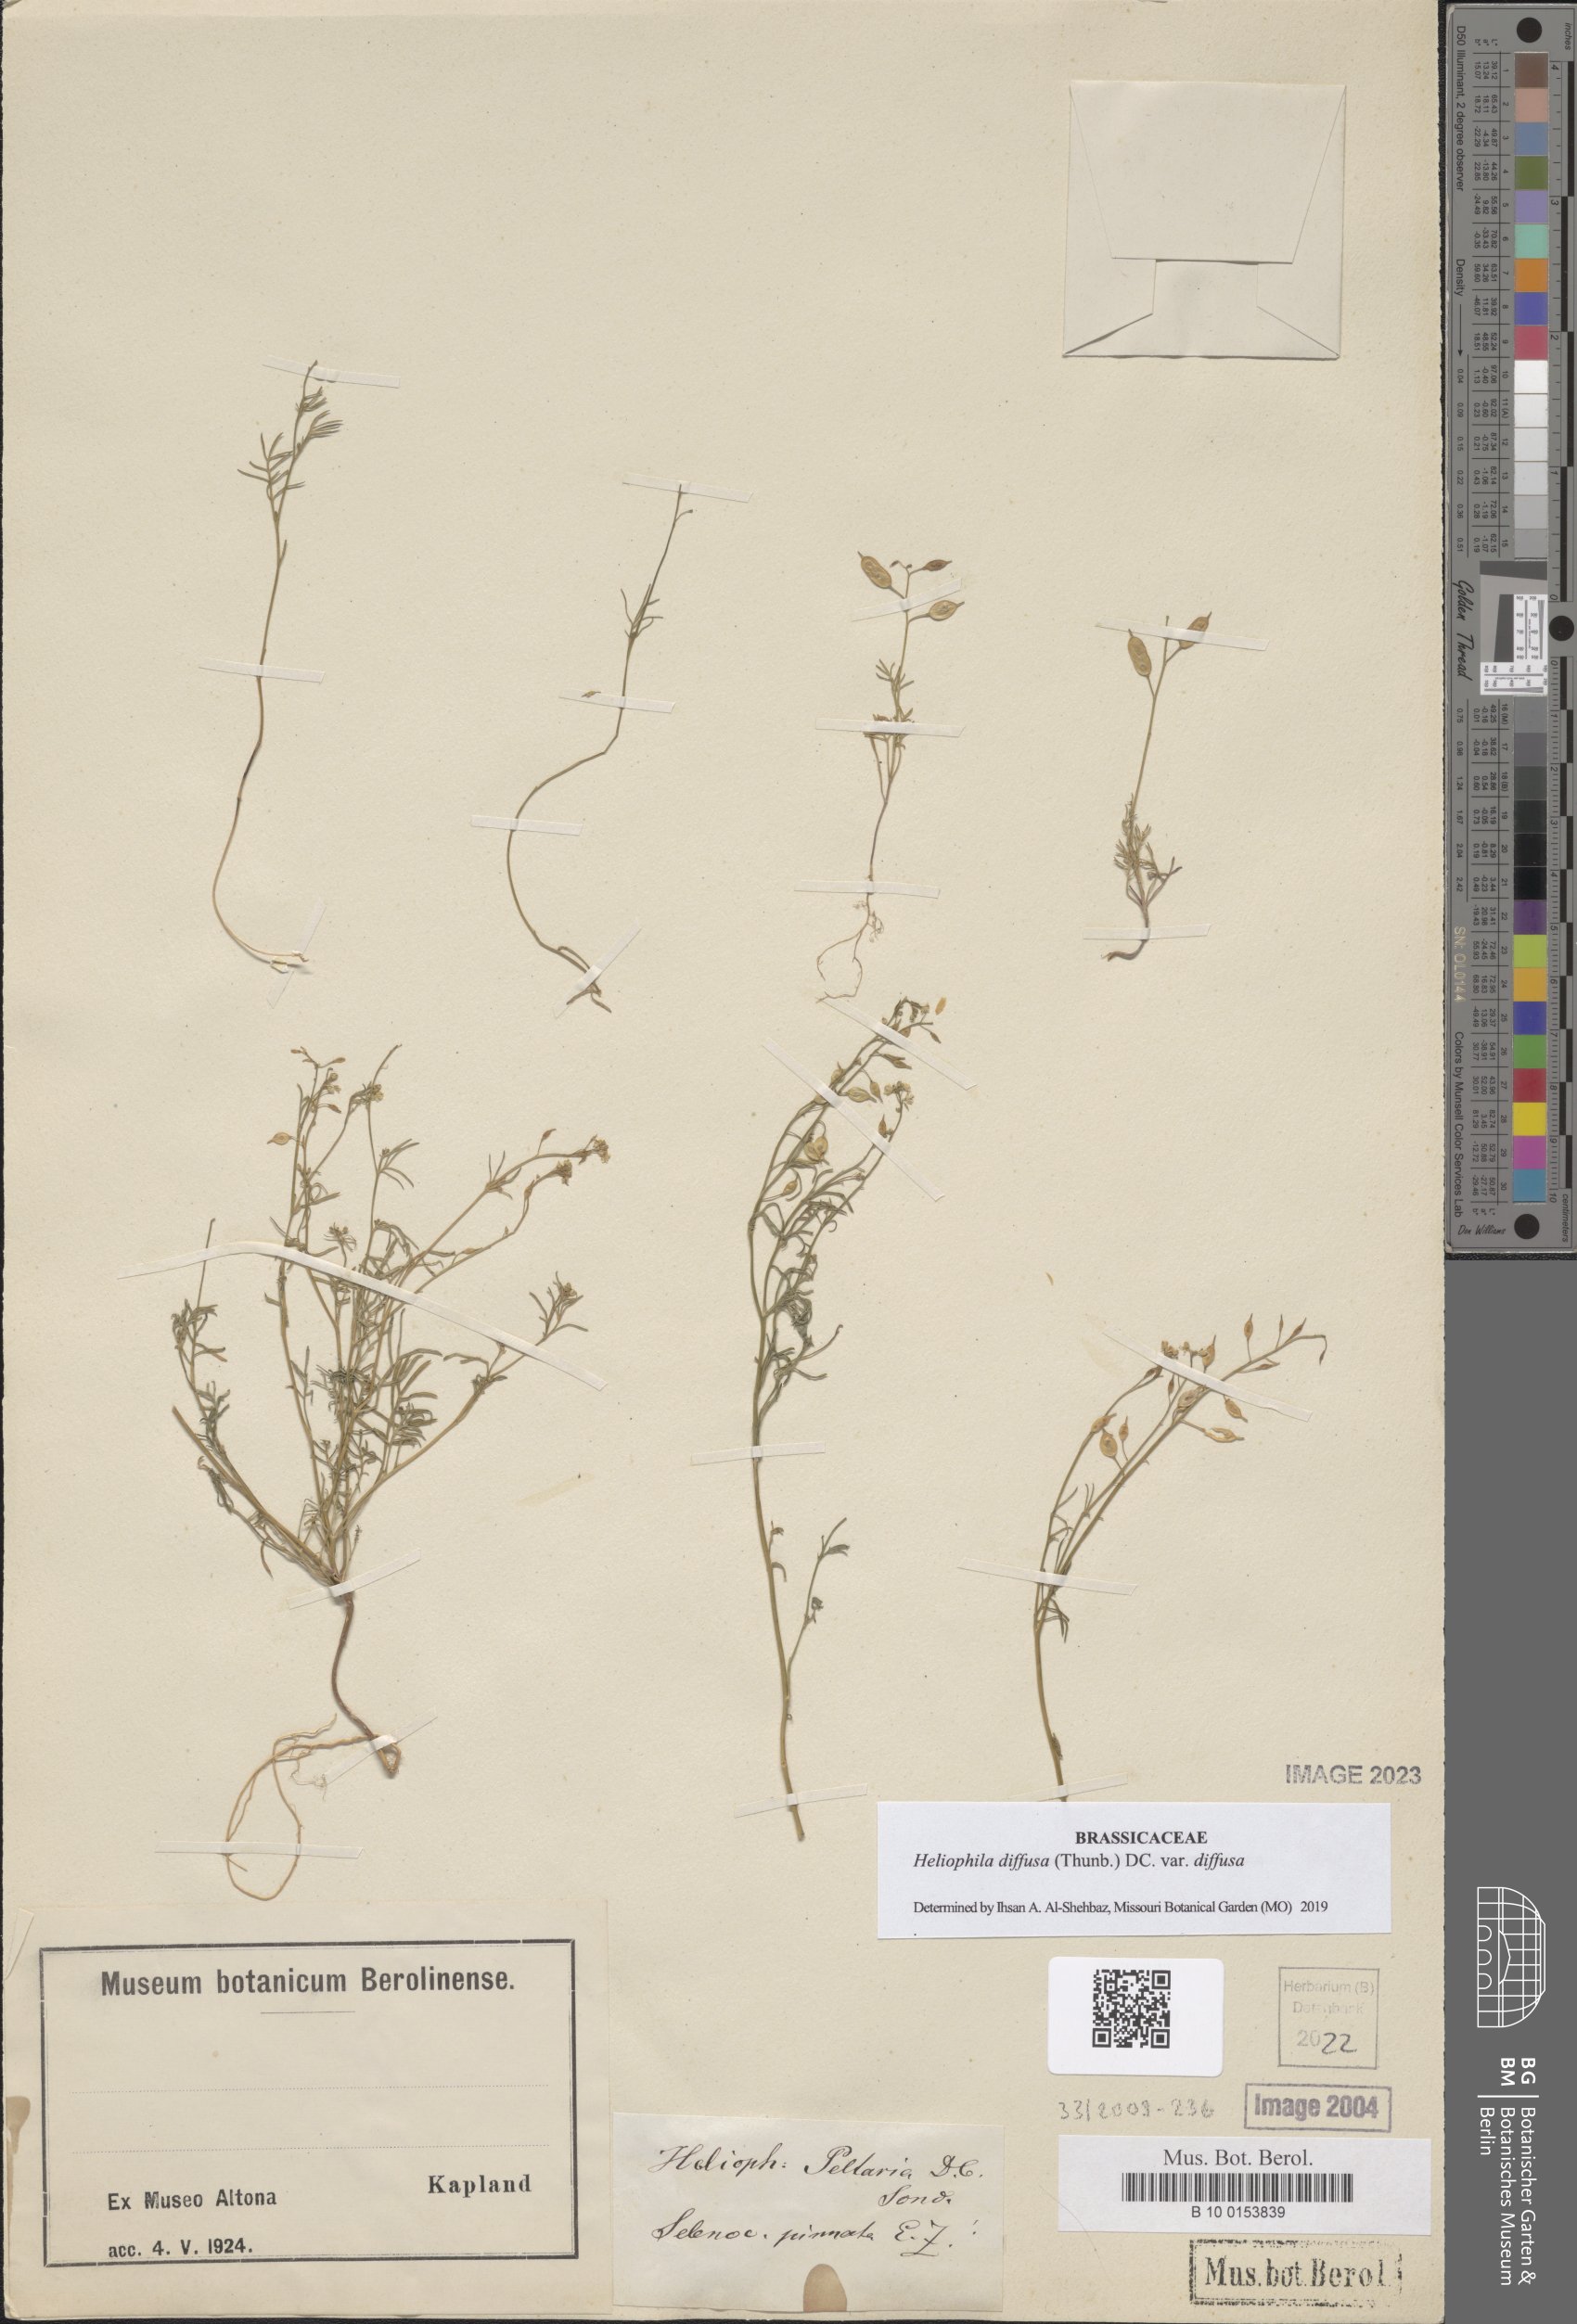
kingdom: Plantae
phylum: Tracheophyta
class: Magnoliopsida
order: Brassicales
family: Brassicaceae
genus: Heliophila
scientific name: Heliophila diffusa
